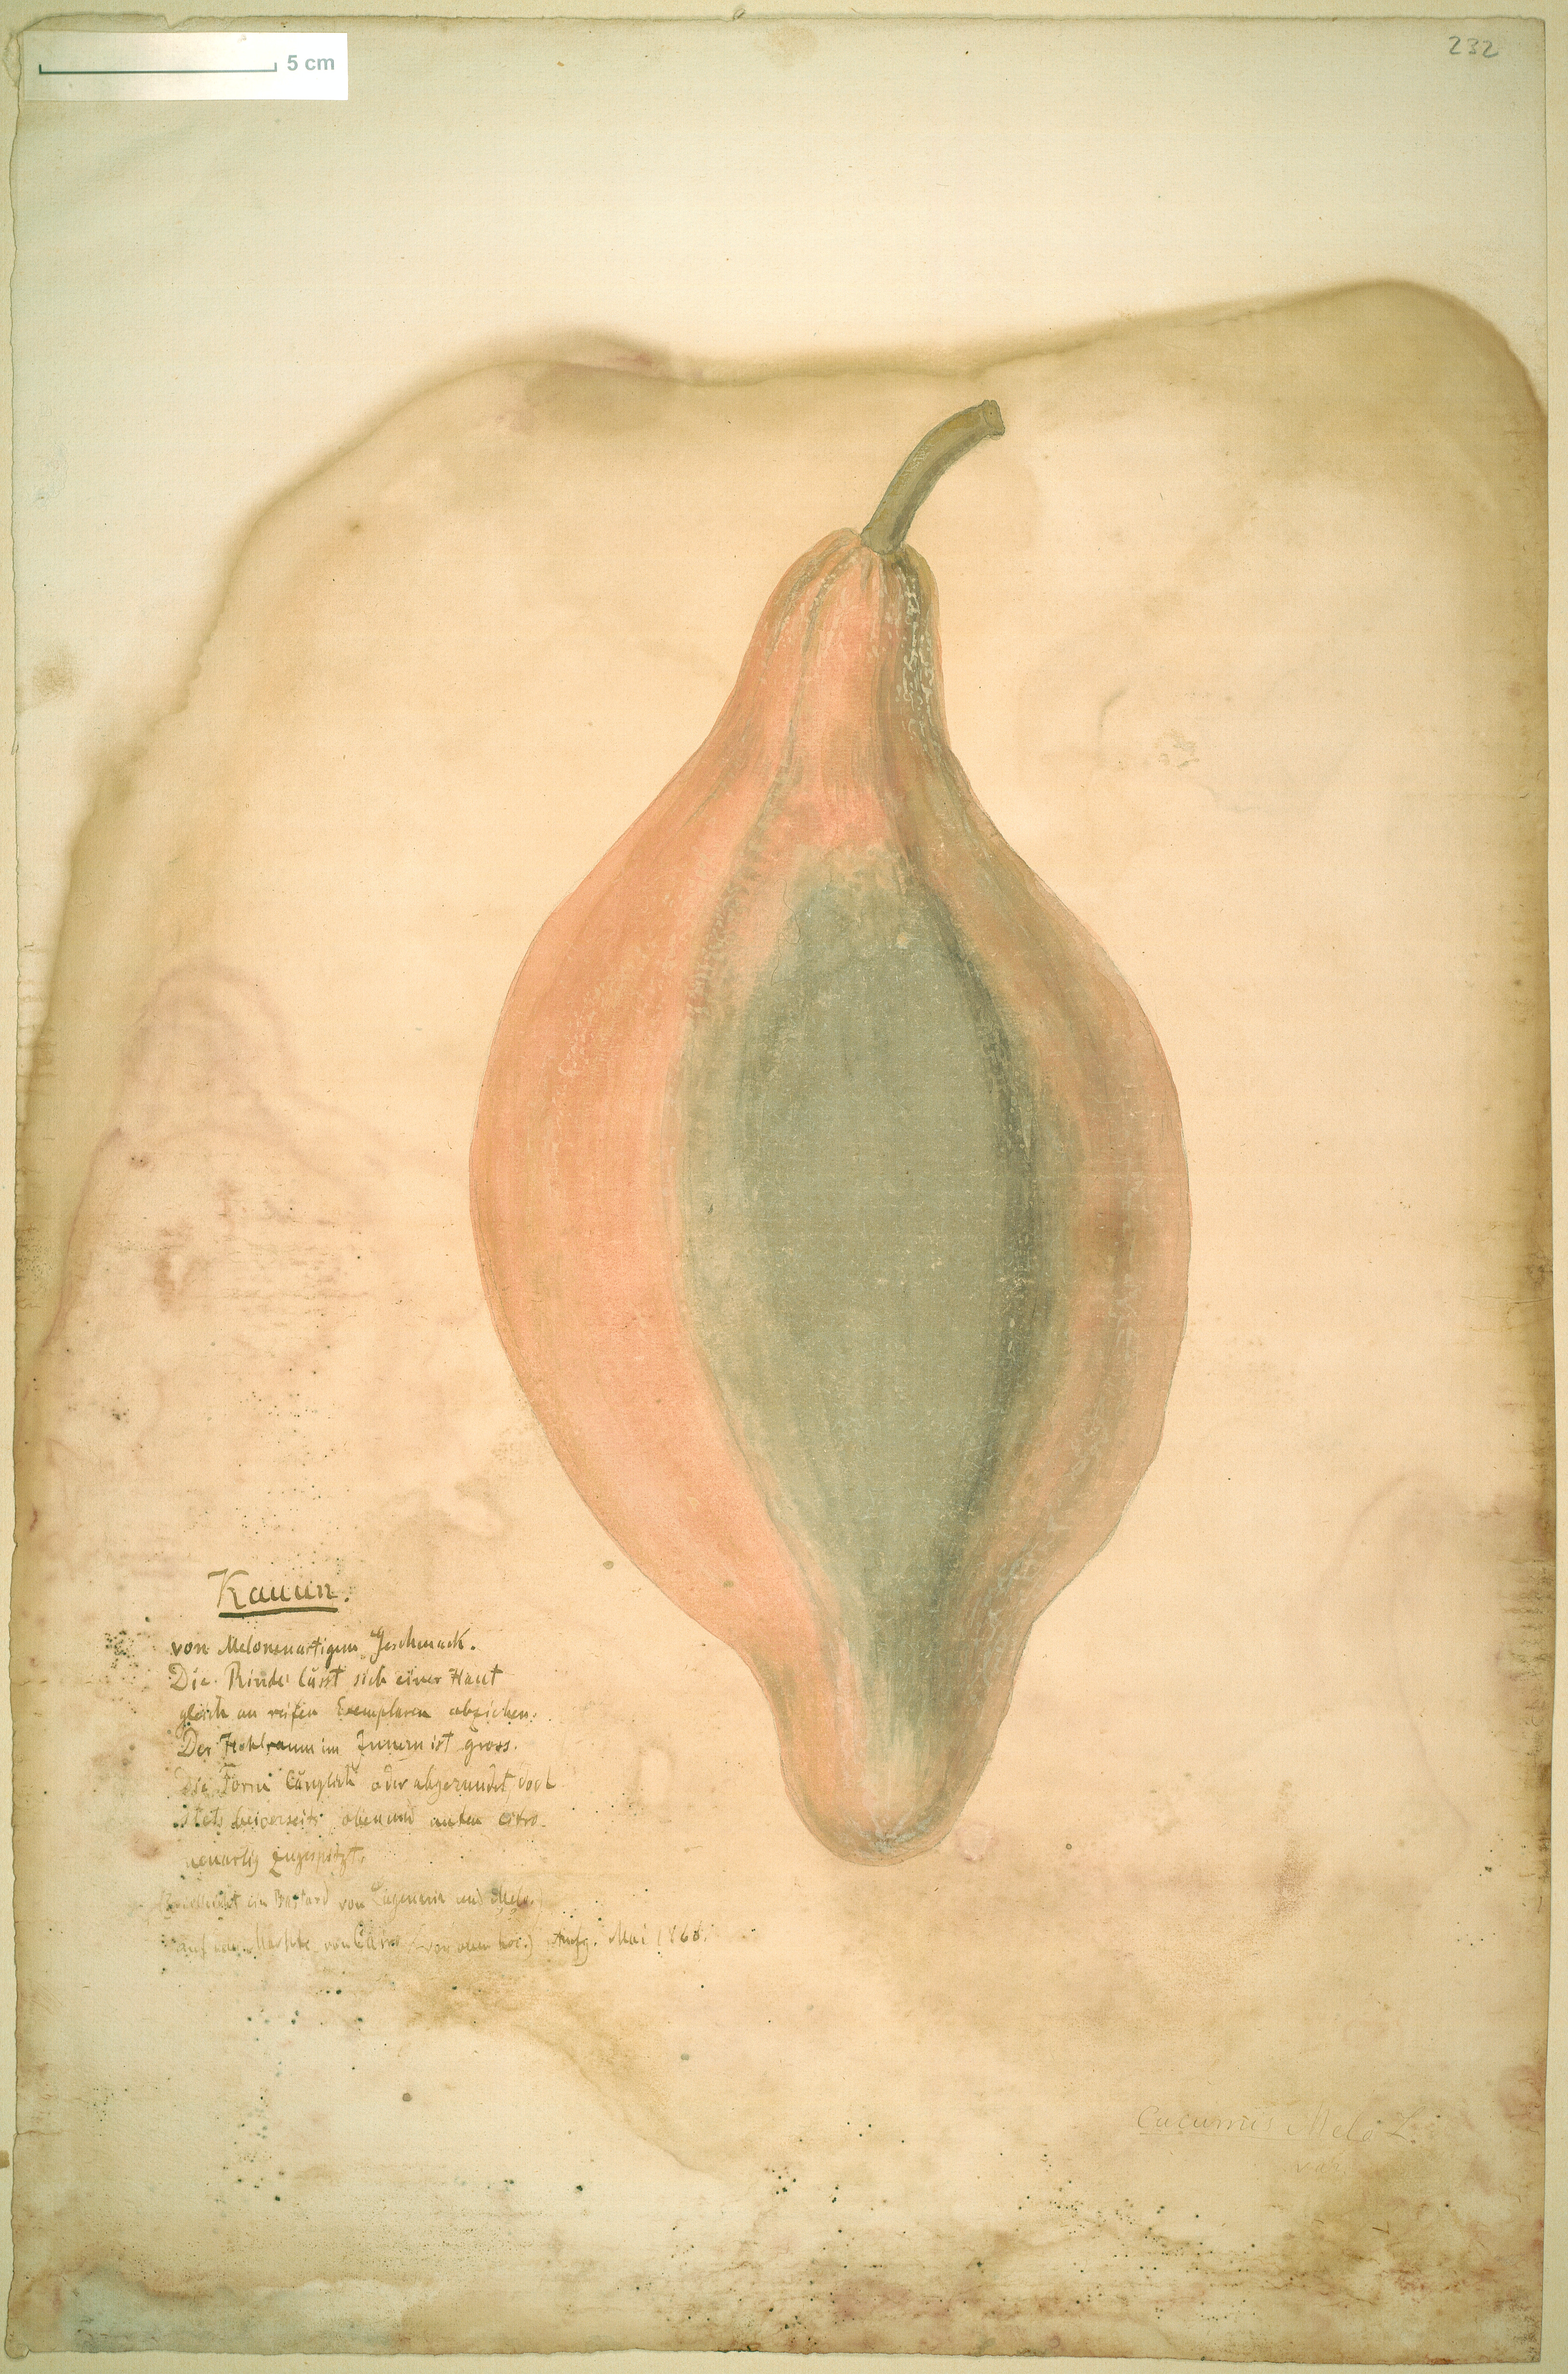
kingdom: Plantae
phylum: Tracheophyta
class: Magnoliopsida
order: Cucurbitales
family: Cucurbitaceae
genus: Cucumis
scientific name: Cucumis melo
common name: Melon
